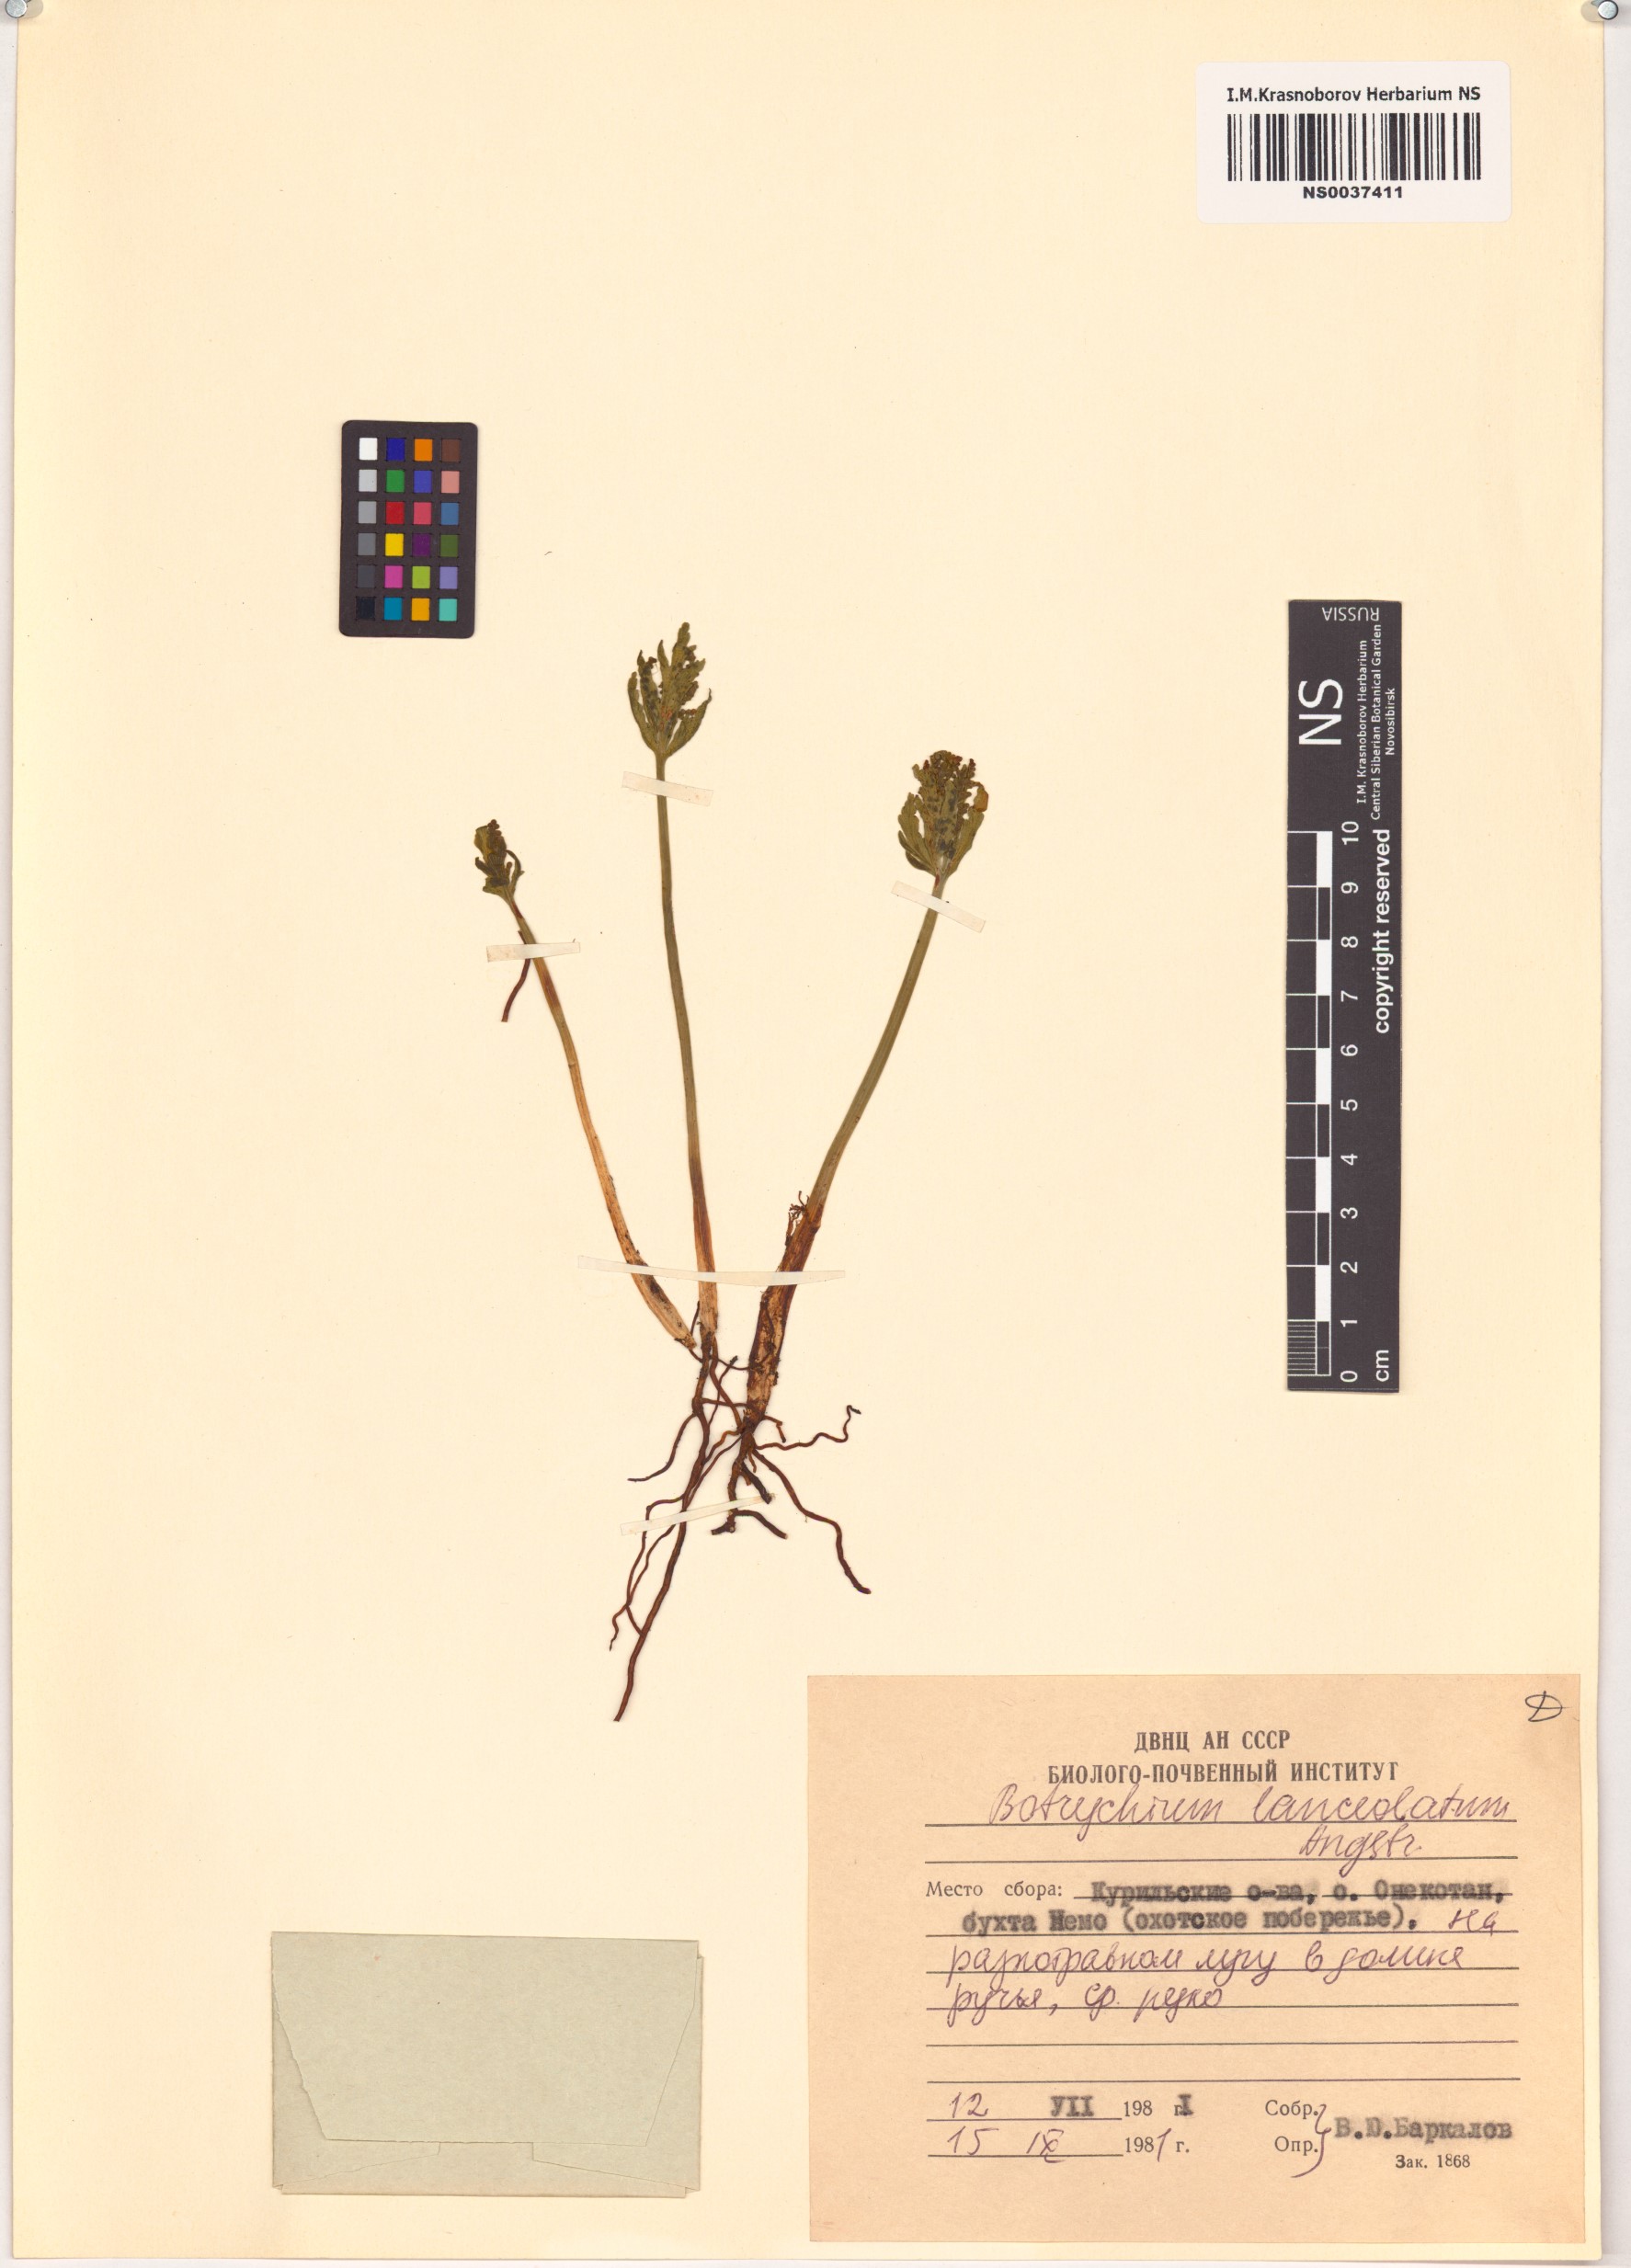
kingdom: Plantae
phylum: Tracheophyta
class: Polypodiopsida
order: Ophioglossales
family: Ophioglossaceae
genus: Botrychium
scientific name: Botrychium lanceolatum
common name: Lance-leaved moonwort
